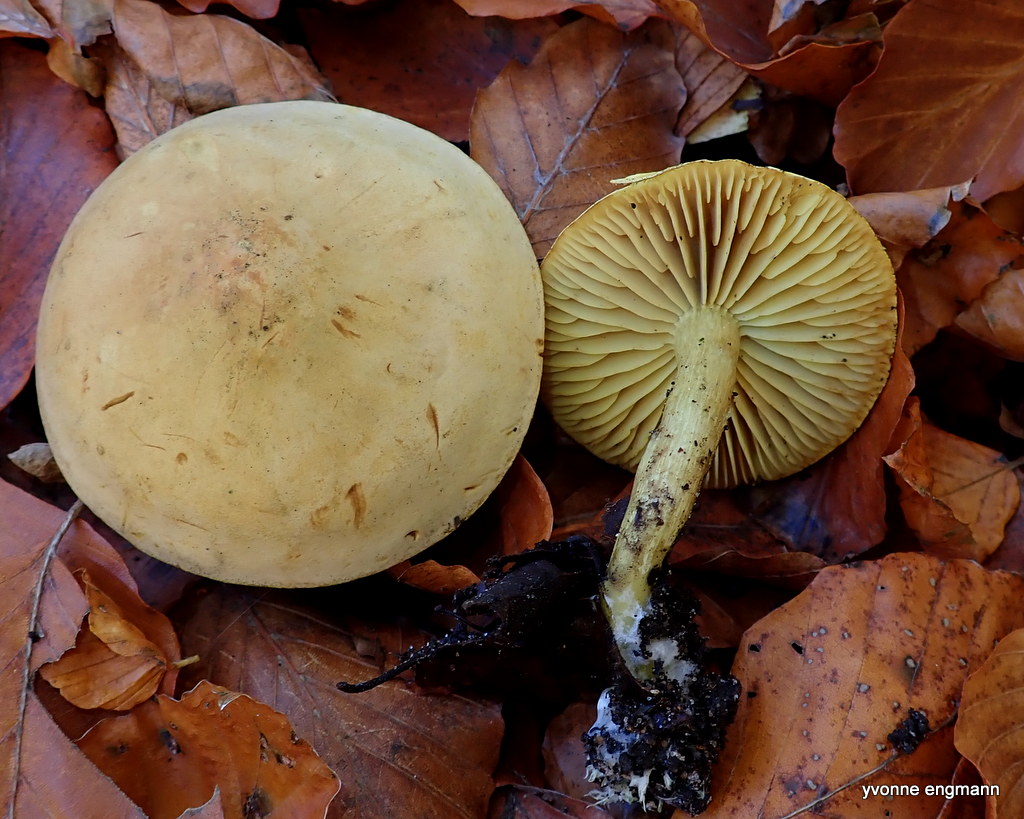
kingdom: Fungi
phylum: Basidiomycota
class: Agaricomycetes
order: Agaricales
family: Tricholomataceae
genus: Tricholoma
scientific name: Tricholoma sulphureum
